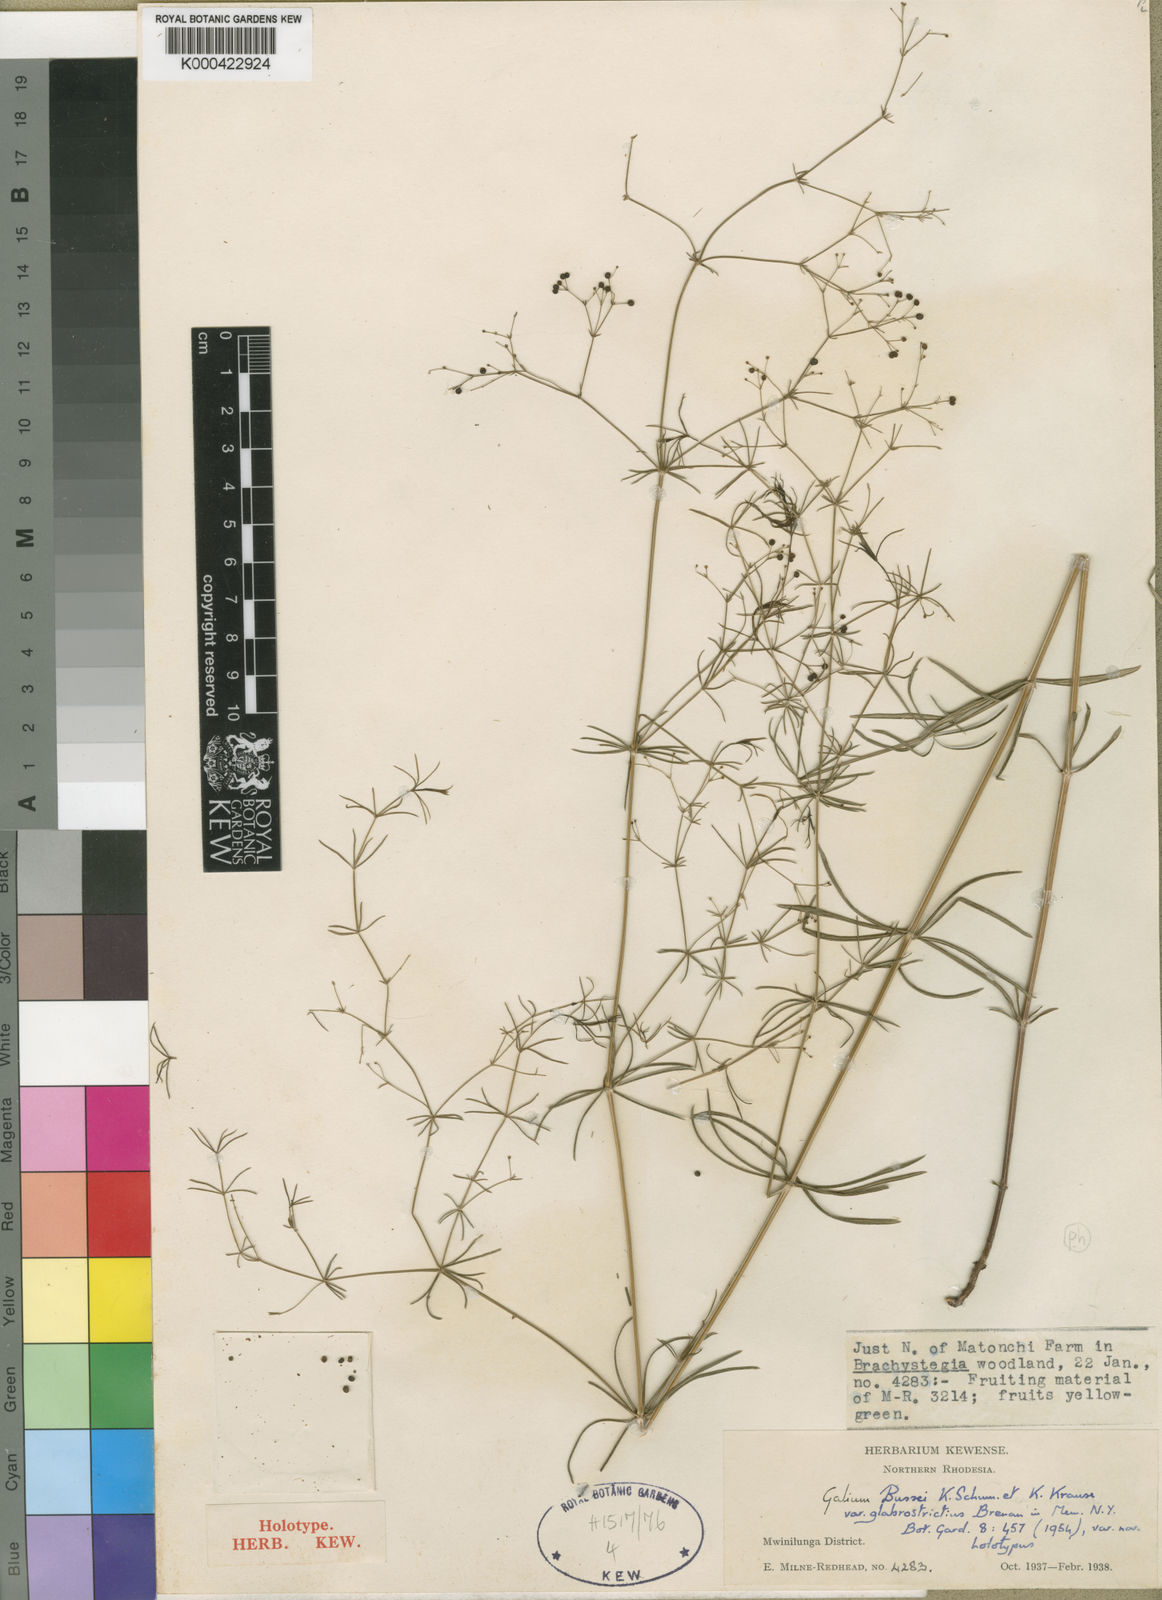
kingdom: Plantae
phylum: Tracheophyta
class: Magnoliopsida
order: Gentianales
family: Rubiaceae
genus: Galium
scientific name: Galium bussei
